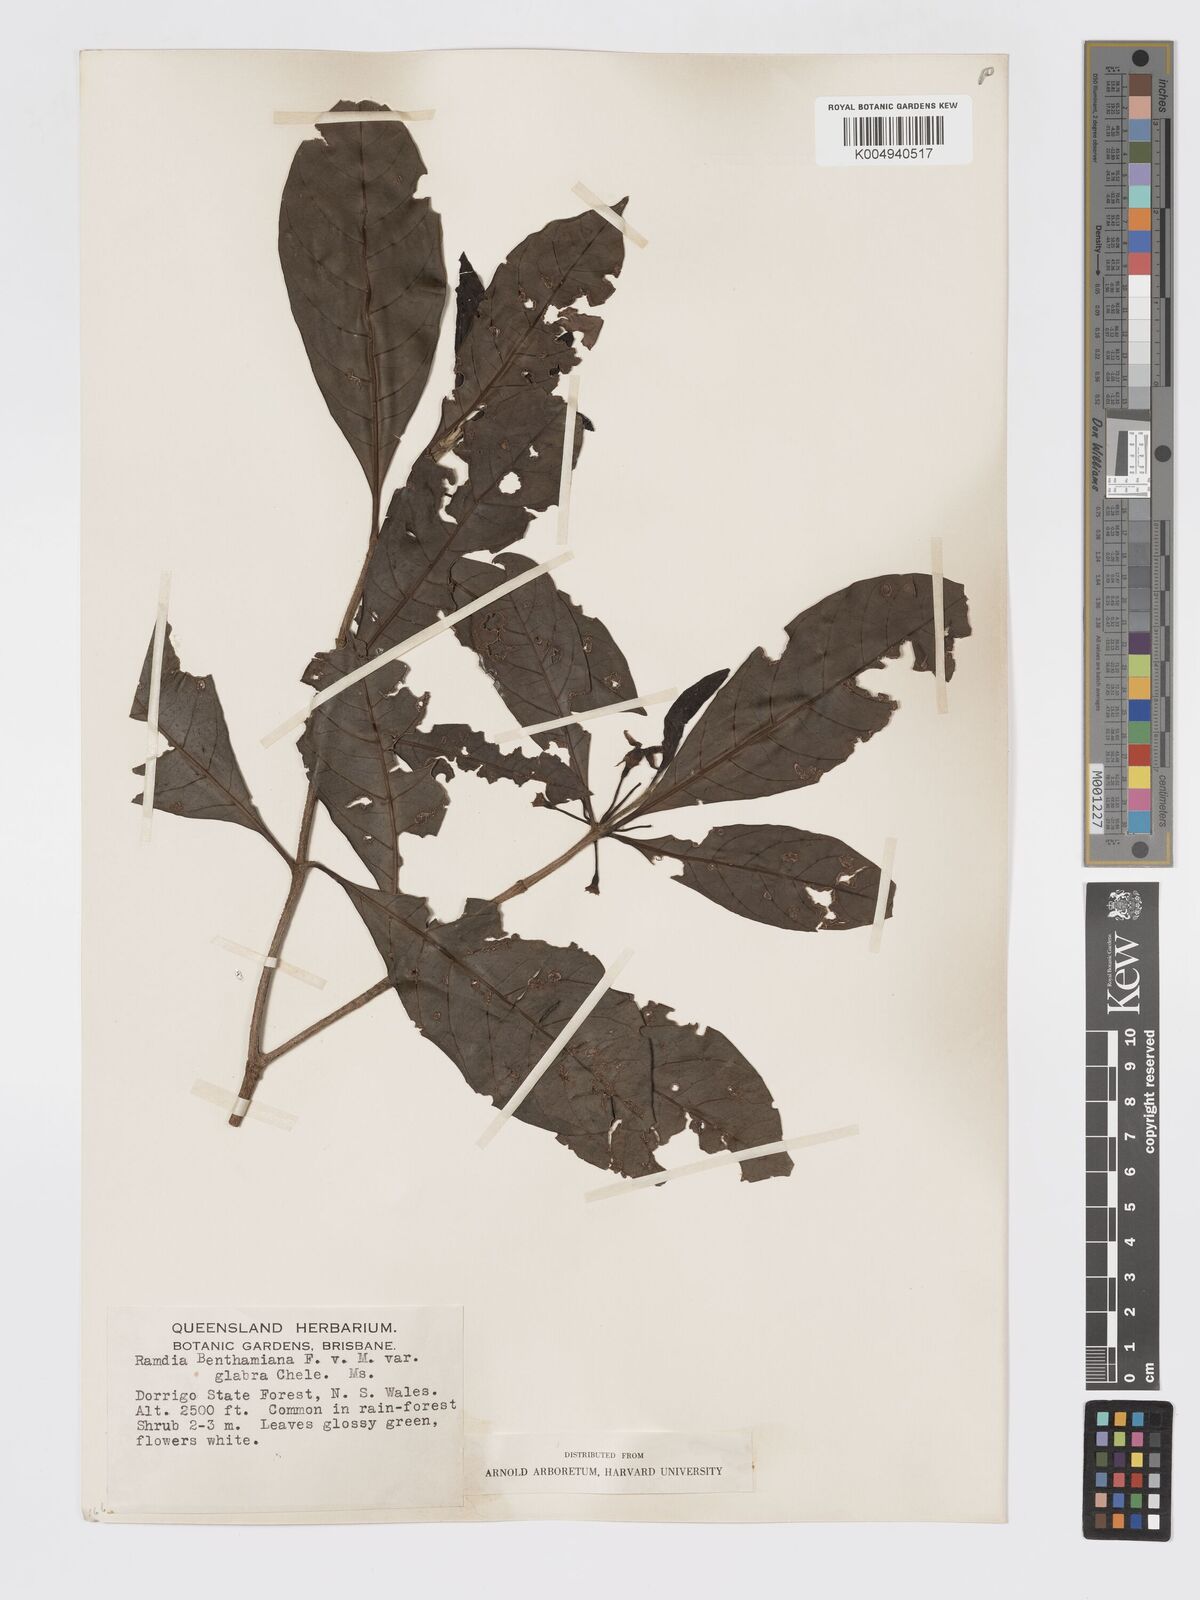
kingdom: Plantae
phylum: Tracheophyta
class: Magnoliopsida
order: Gentianales
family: Rubiaceae
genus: Atractocarpus
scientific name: Atractocarpus benthamianus
